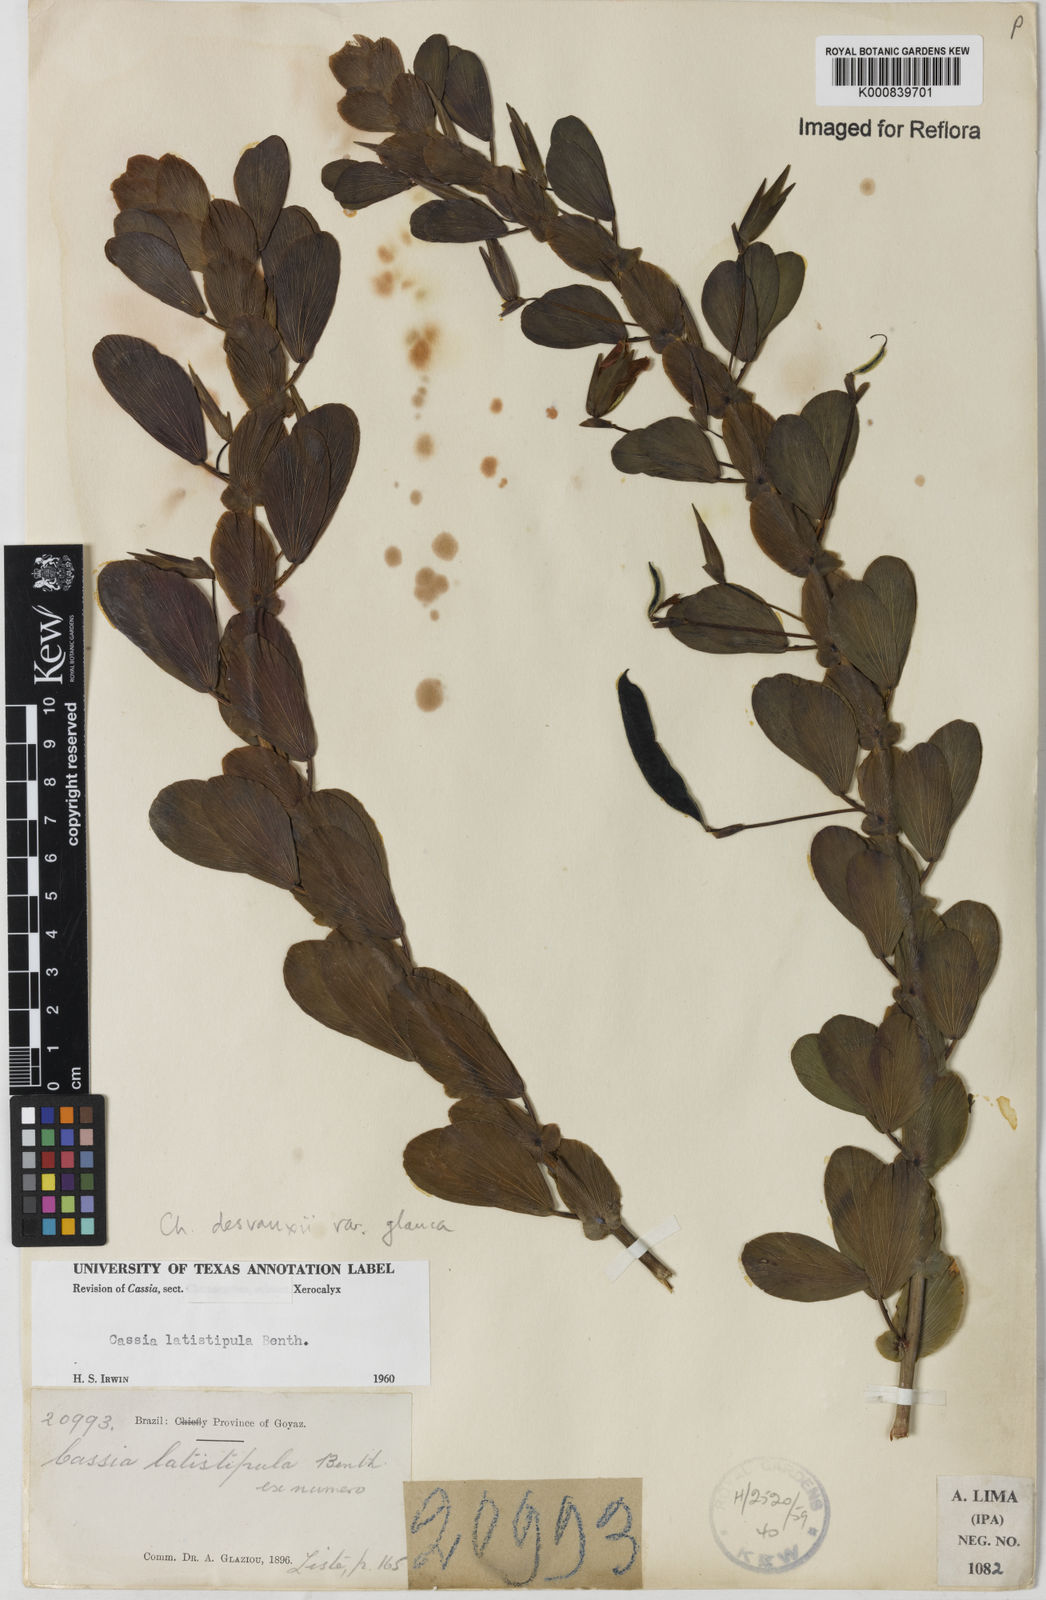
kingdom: Plantae
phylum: Tracheophyta
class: Magnoliopsida
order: Fabales
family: Fabaceae
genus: Chamaecrista
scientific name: Chamaecrista desvauxii
